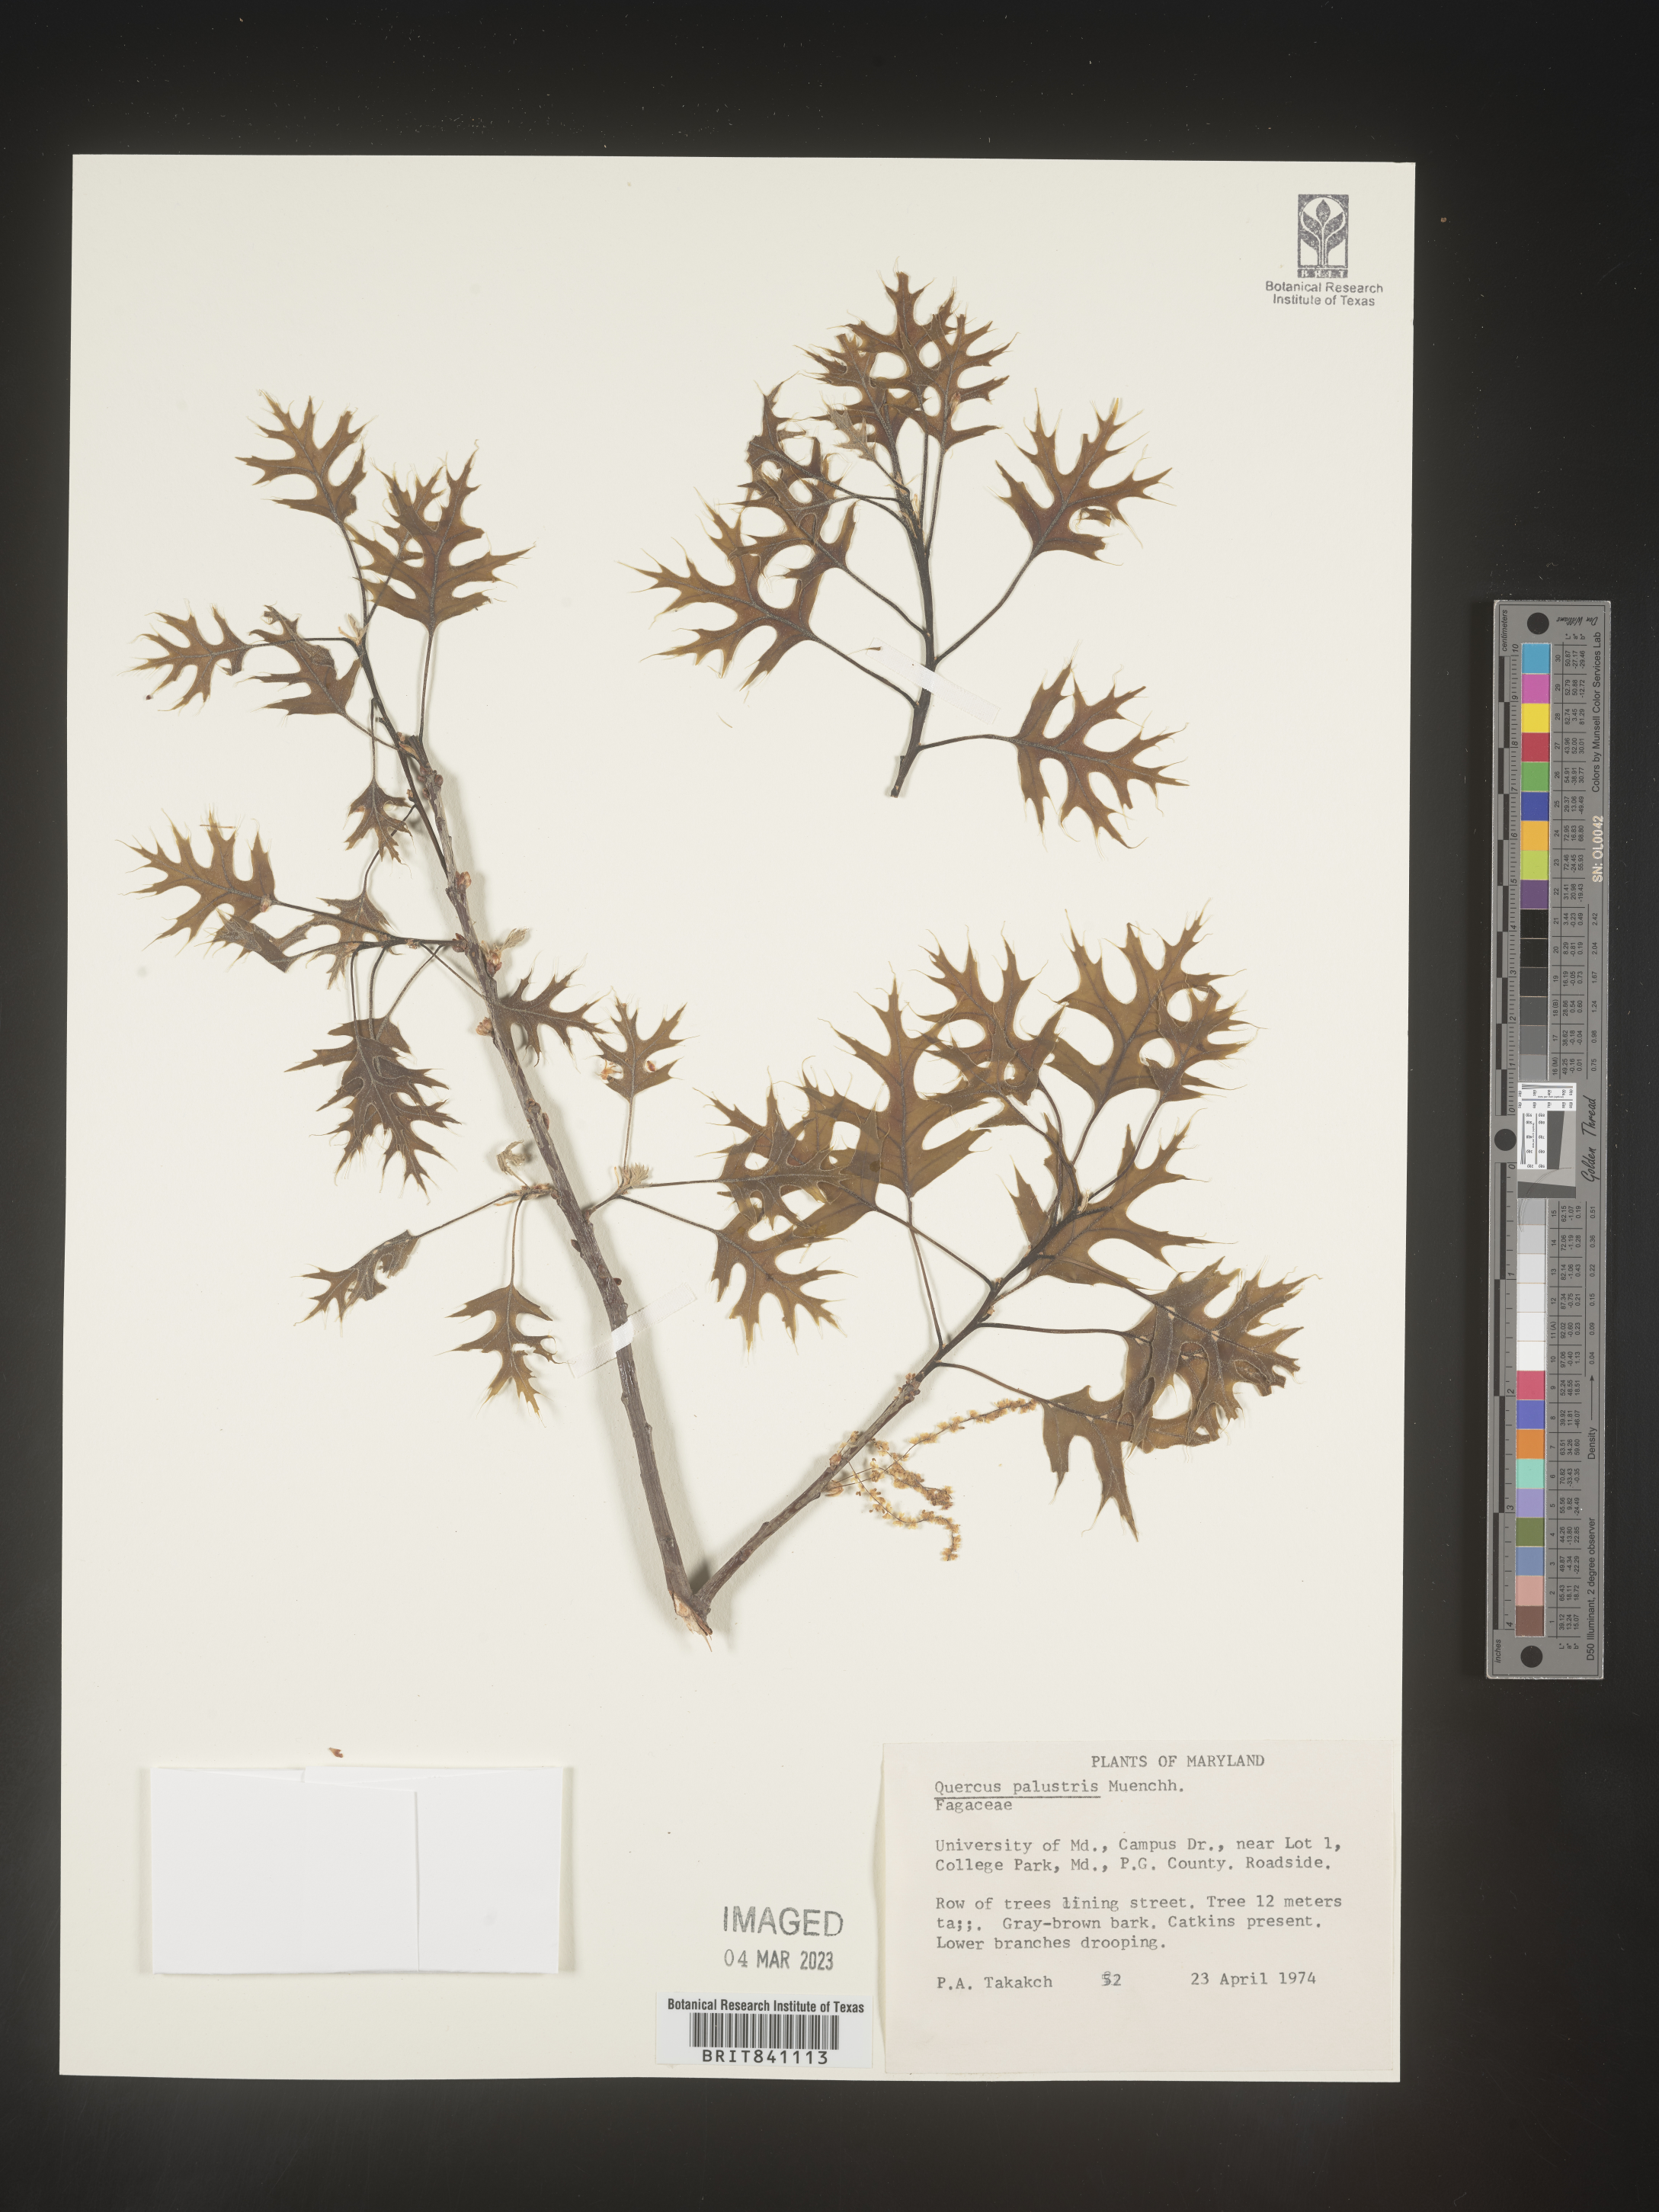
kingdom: Plantae
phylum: Tracheophyta
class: Magnoliopsida
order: Fagales
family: Fagaceae
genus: Quercus
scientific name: Quercus palustris
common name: Pin oak
